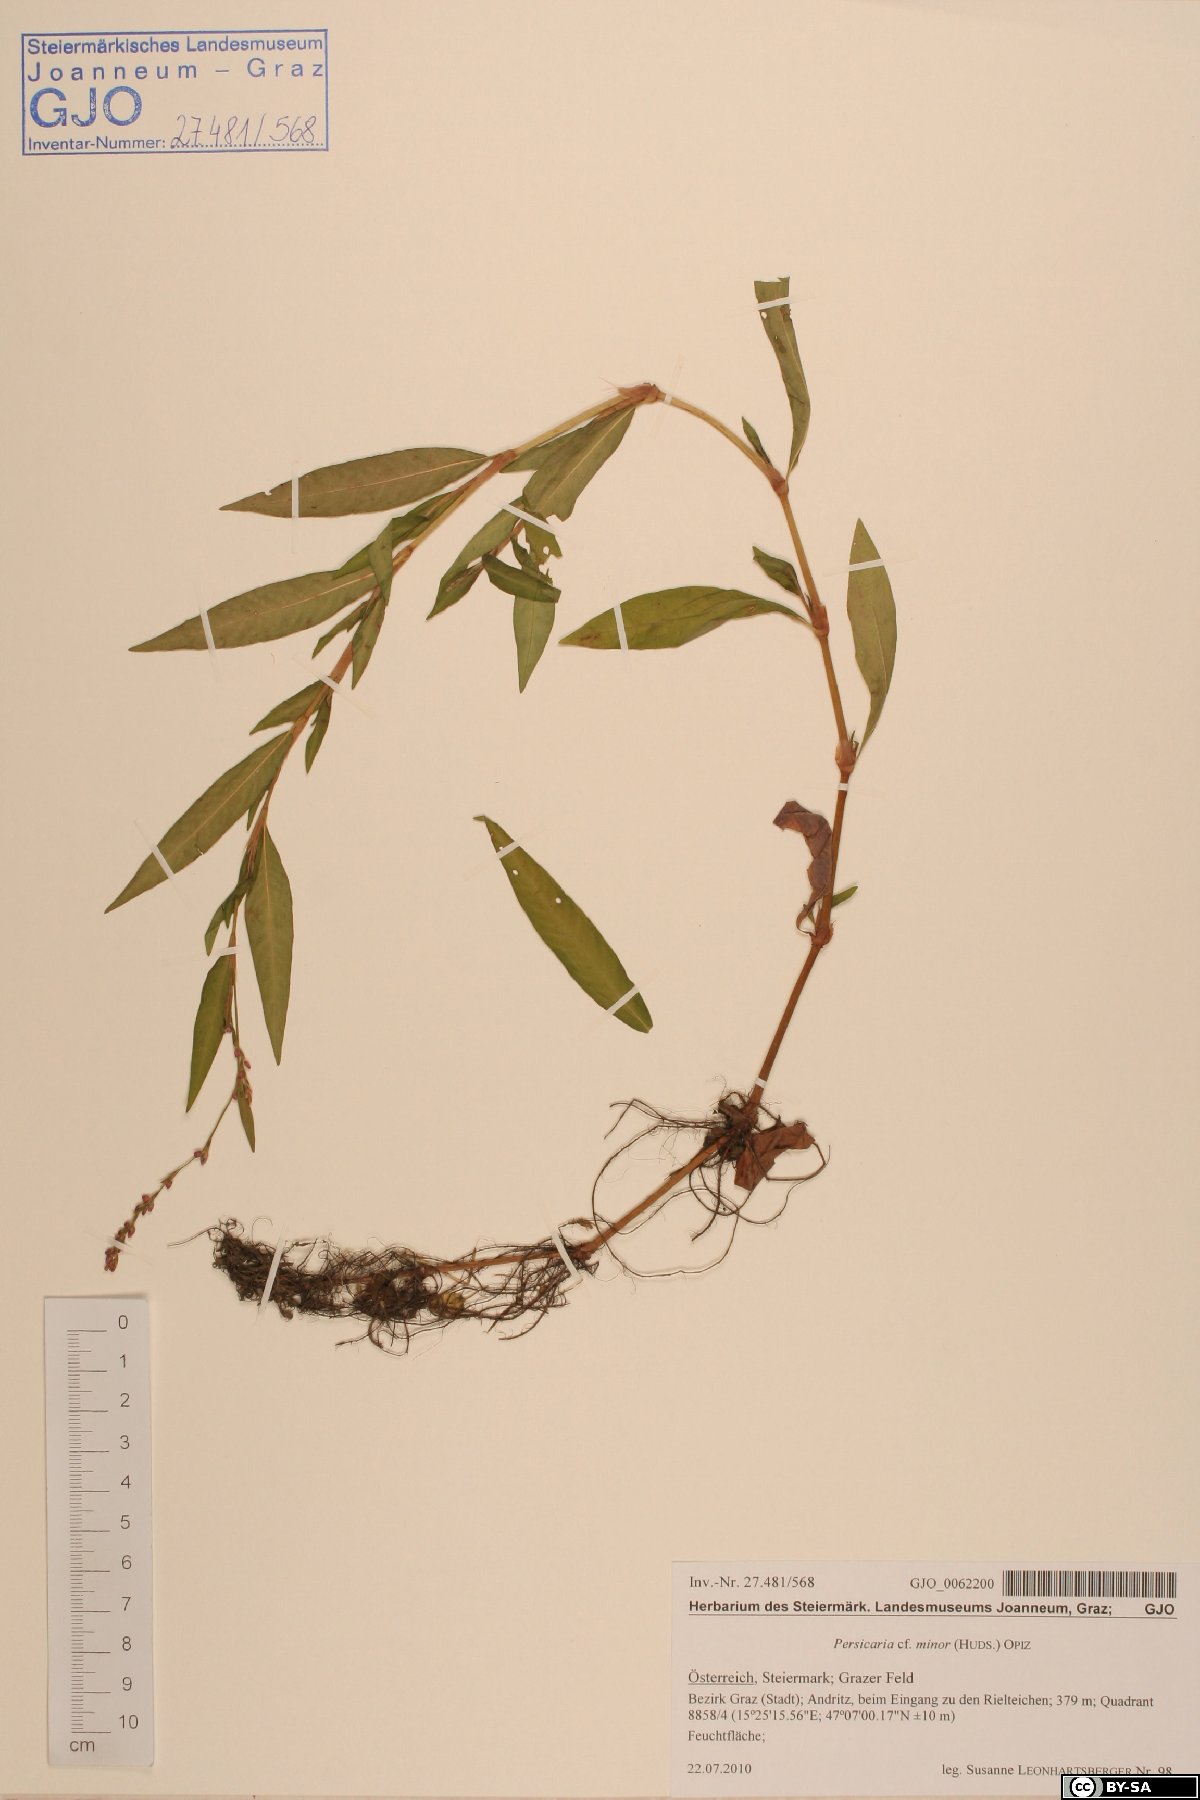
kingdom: Plantae
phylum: Tracheophyta
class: Magnoliopsida
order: Caryophyllales
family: Polygonaceae
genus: Persicaria
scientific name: Persicaria mitis
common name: Tasteless water-pepper
